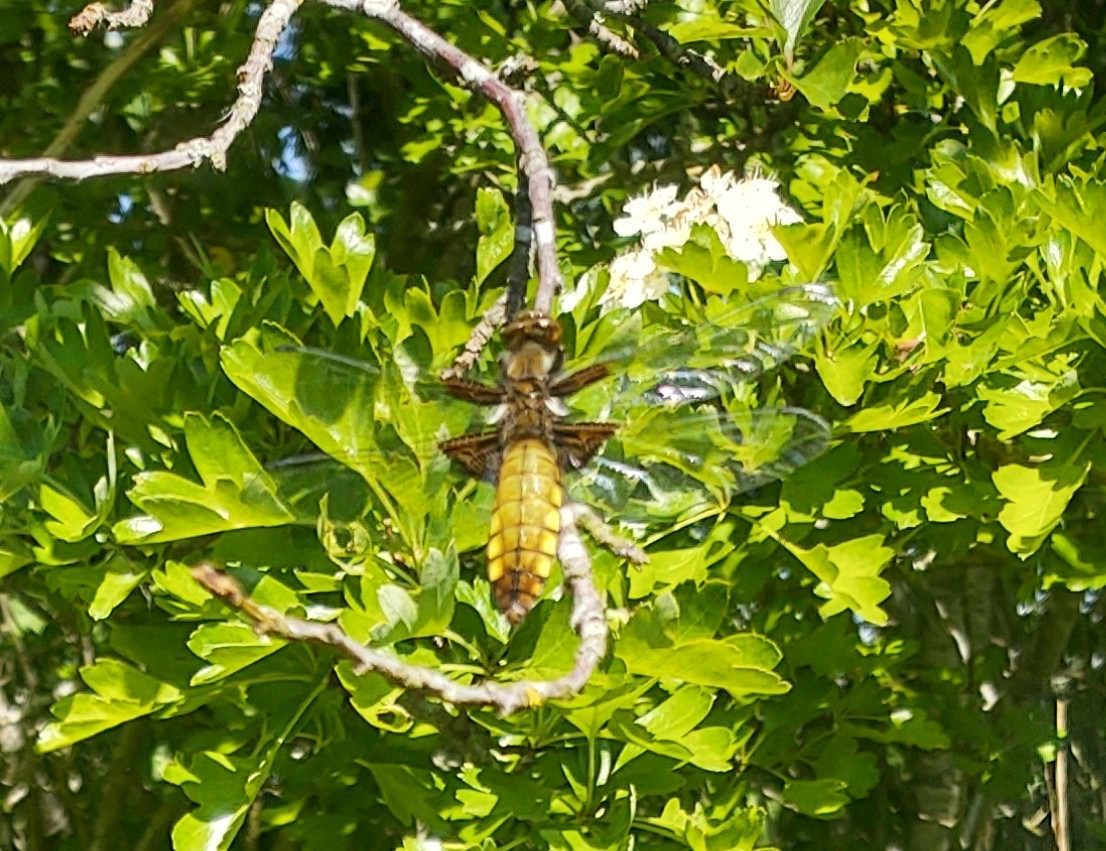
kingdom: Animalia
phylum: Arthropoda
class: Insecta
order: Odonata
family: Libellulidae
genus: Libellula
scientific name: Libellula depressa
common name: Blå libel
